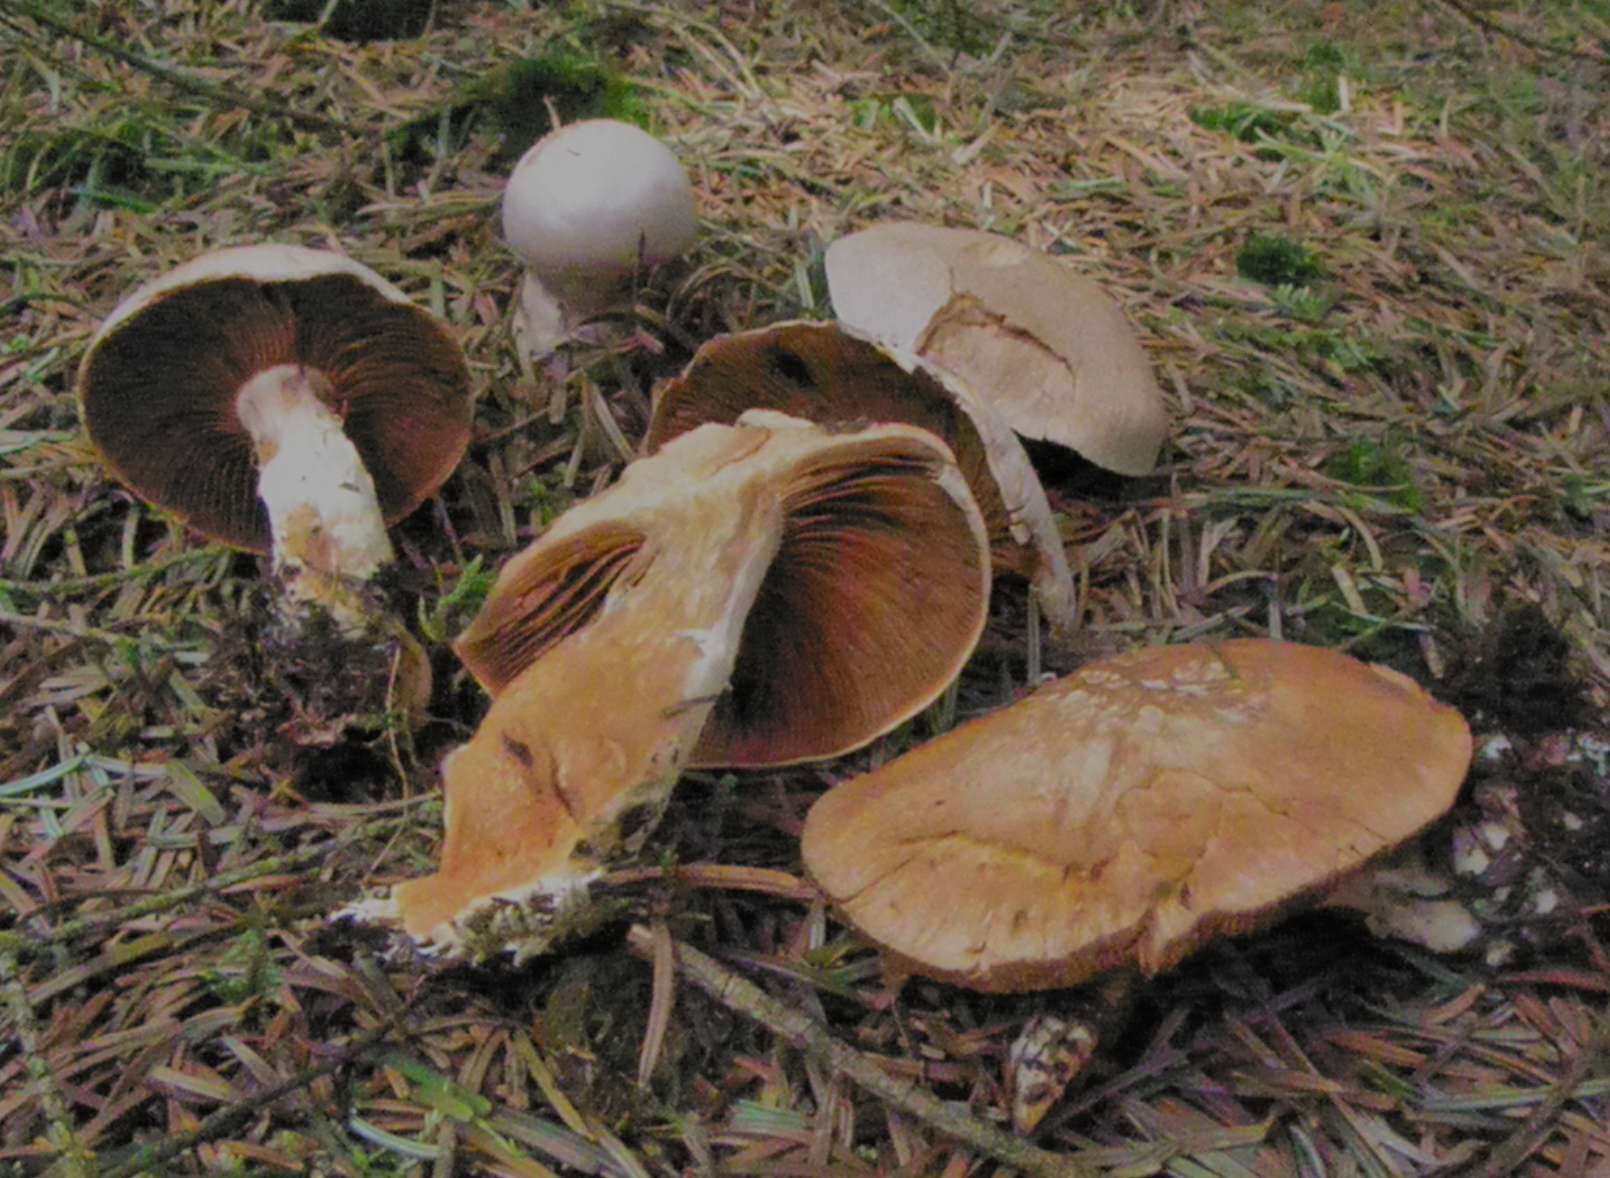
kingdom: Fungi
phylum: Basidiomycota
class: Agaricomycetes
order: Agaricales
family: Cortinariaceae
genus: Cortinarius
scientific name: Cortinarius traganus
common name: safrankødet slørhat
